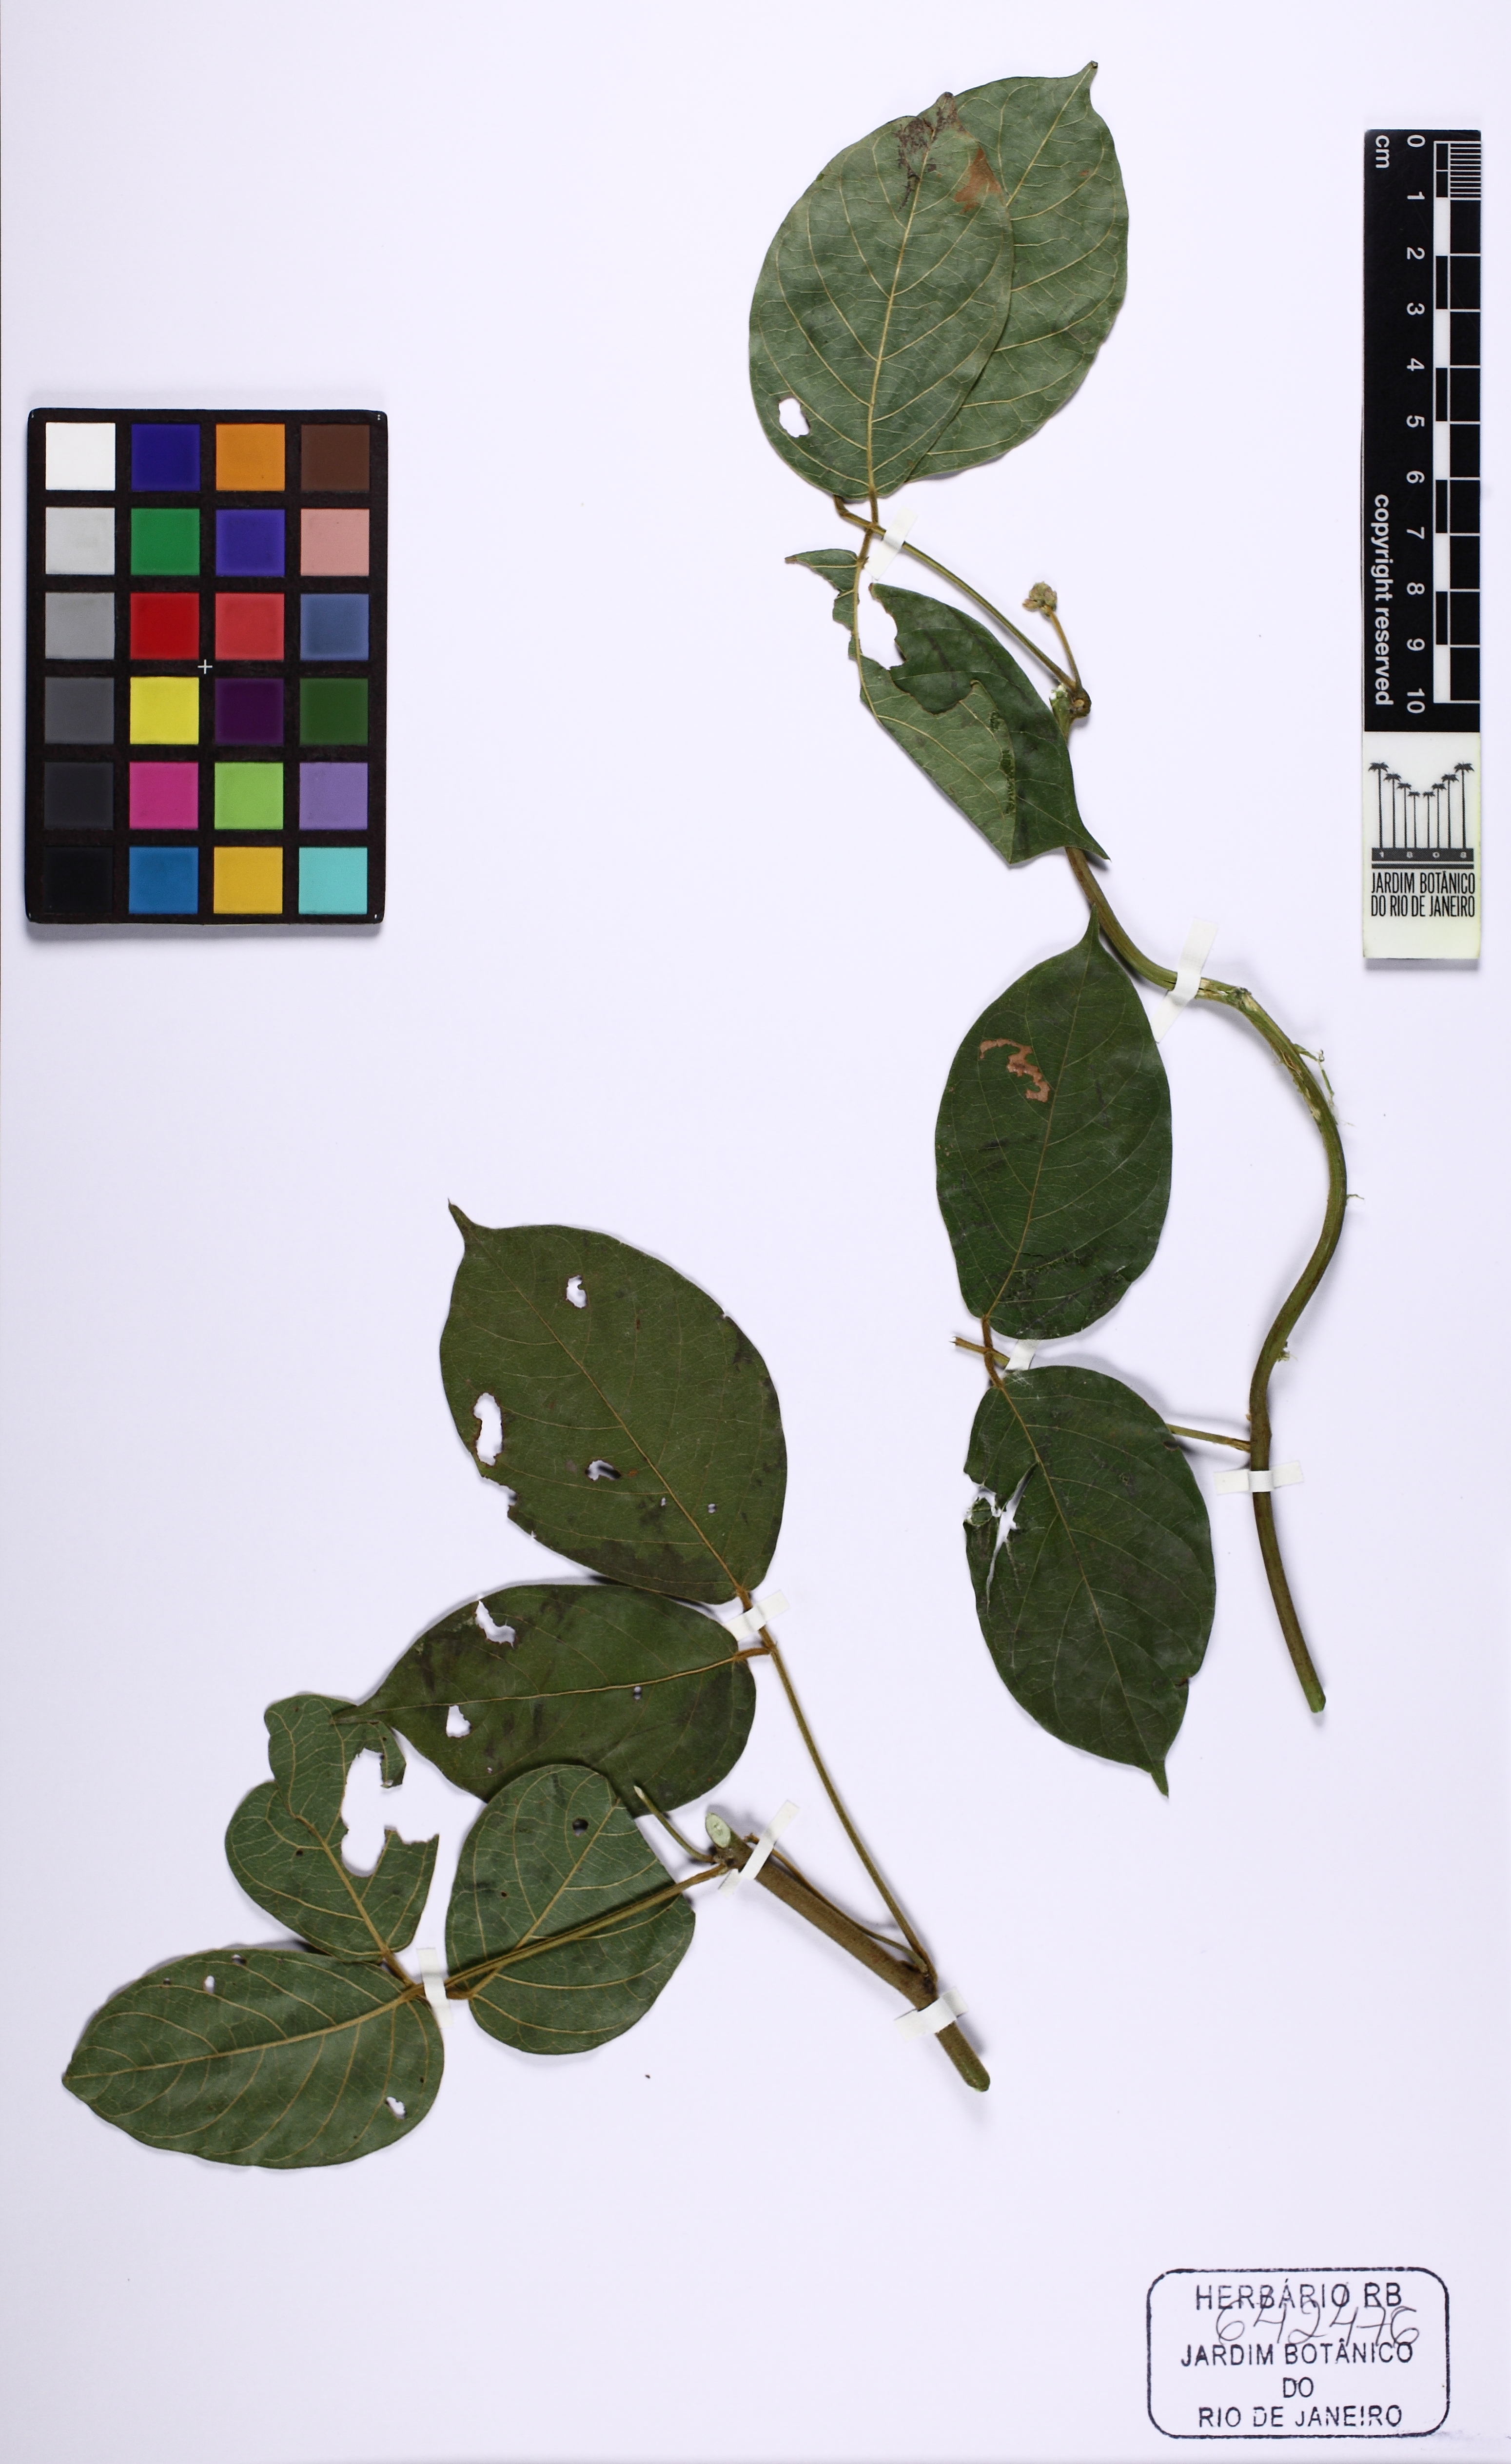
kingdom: Plantae
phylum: Tracheophyta
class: Magnoliopsida
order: Fabales
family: Fabaceae
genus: Dioclea
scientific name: Dioclea
